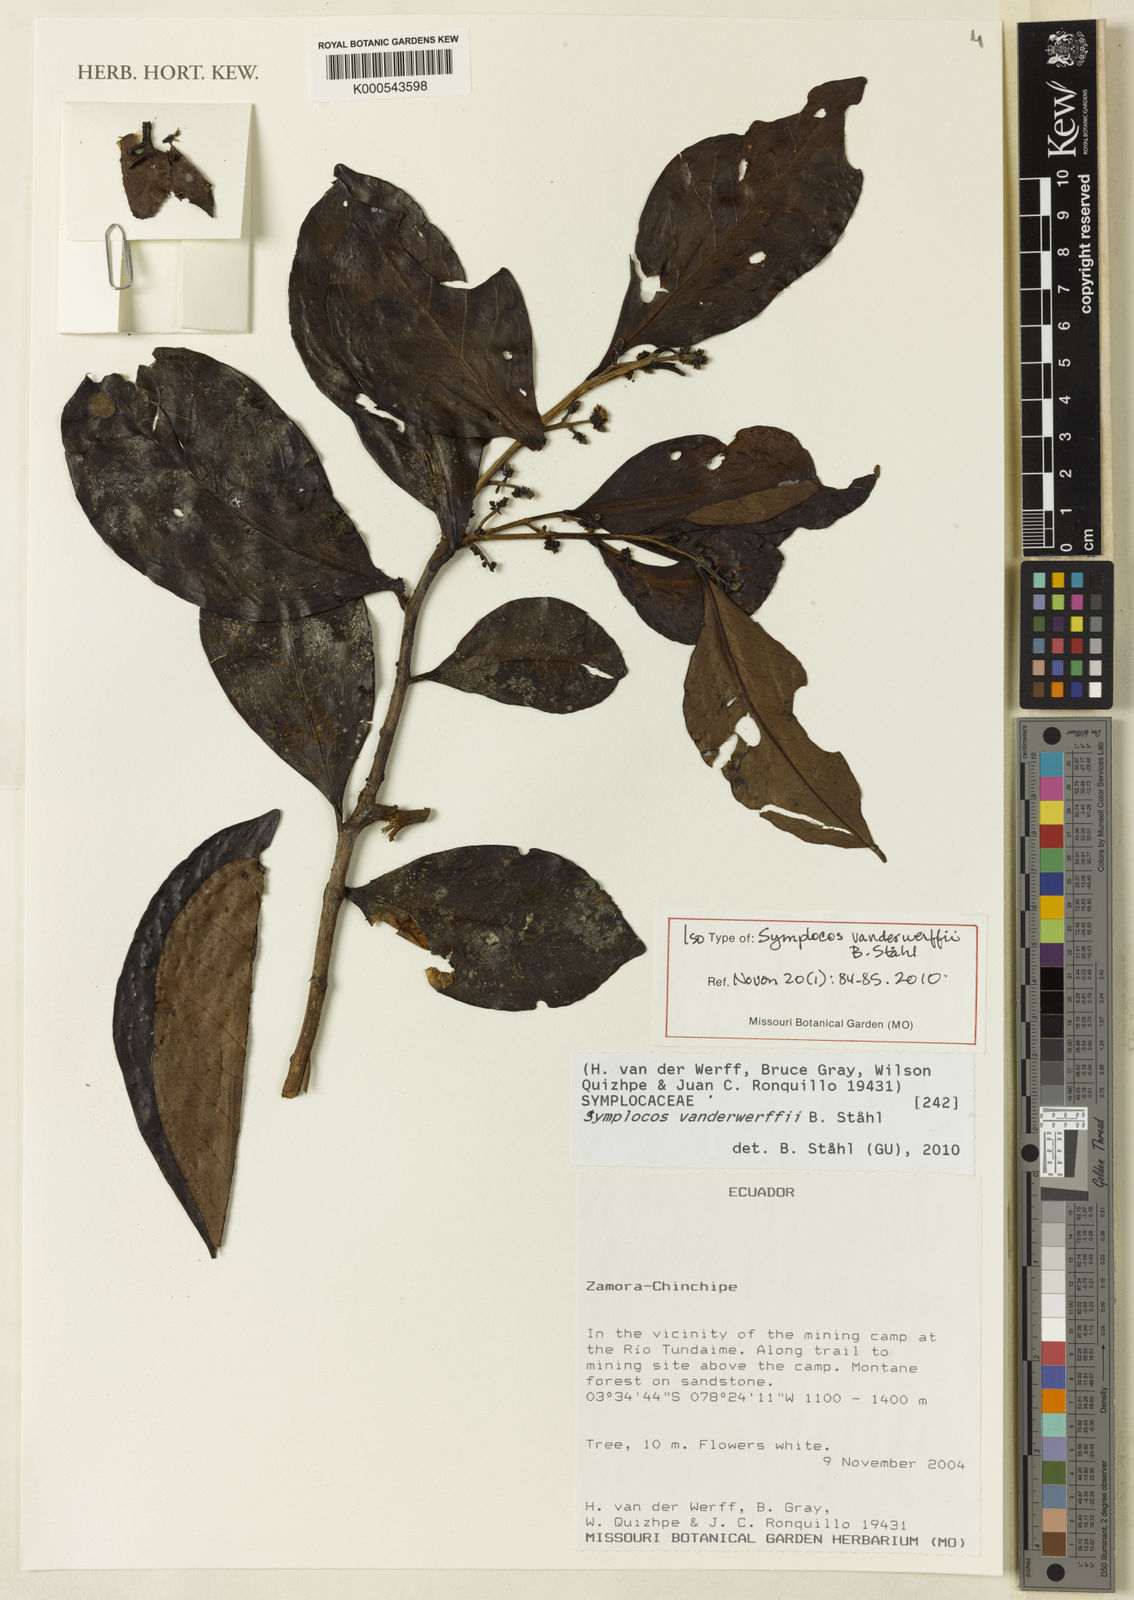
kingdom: Plantae
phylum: Tracheophyta
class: Magnoliopsida
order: Ericales
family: Symplocaceae
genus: Symplocos
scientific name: Symplocos
